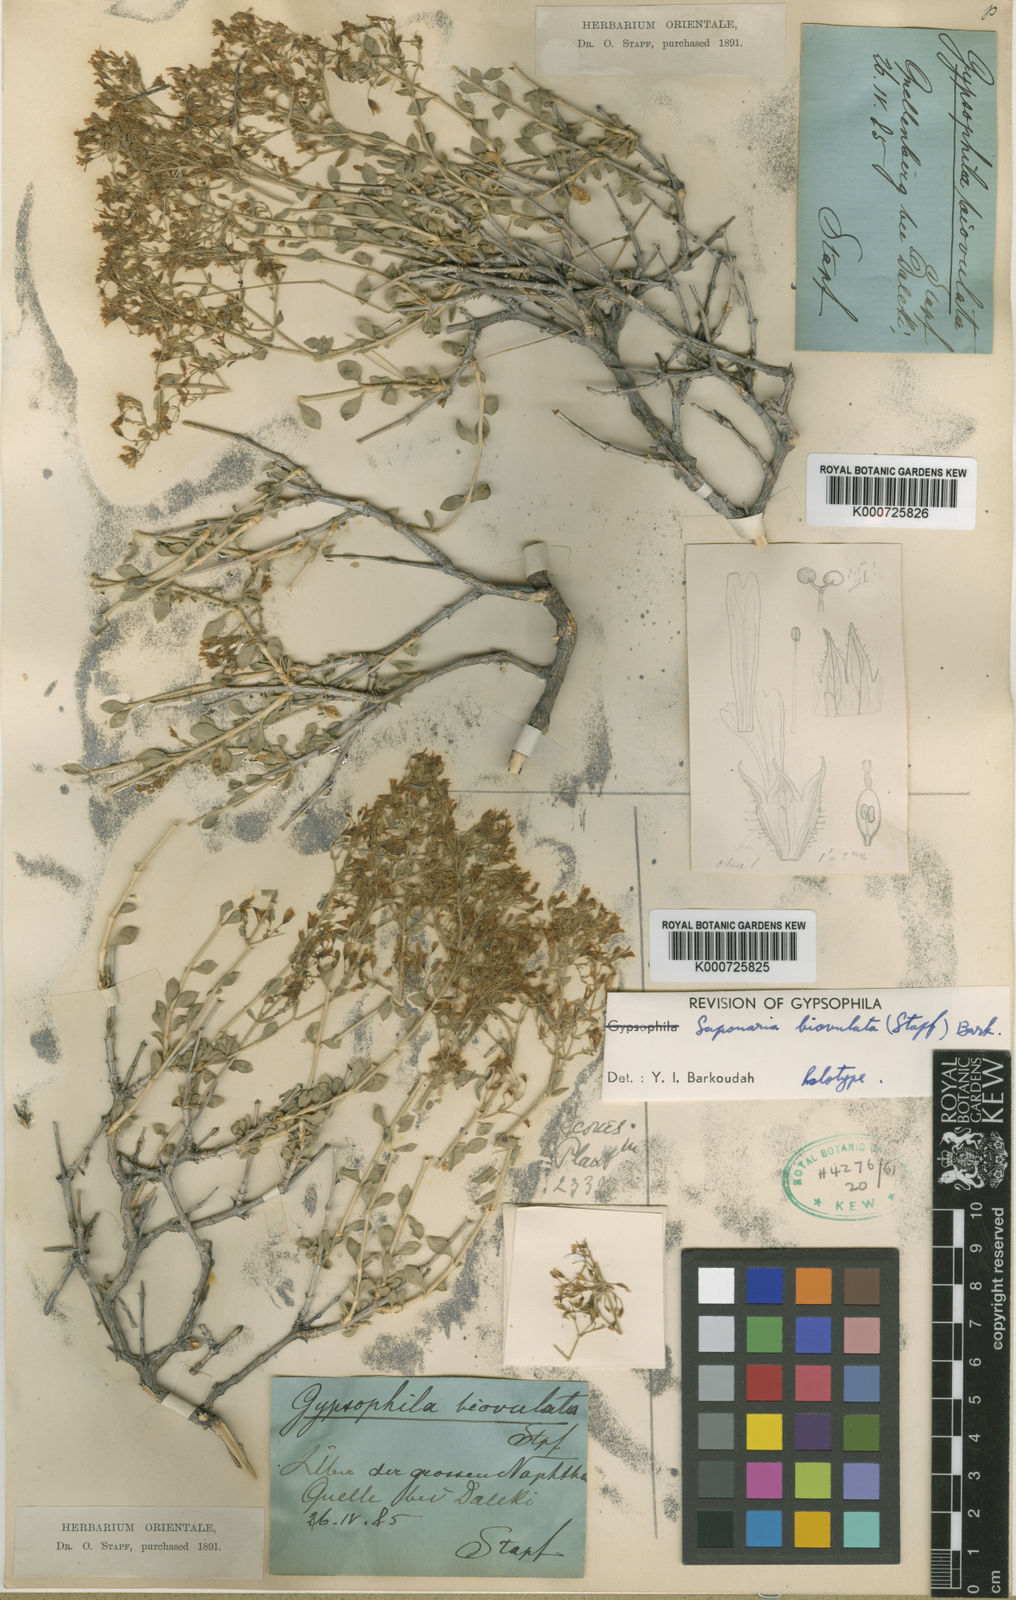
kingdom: Plantae
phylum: Tracheophyta
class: Magnoliopsida
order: Caryophyllales
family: Caryophyllaceae
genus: Saponaria
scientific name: Saponaria biovulata
